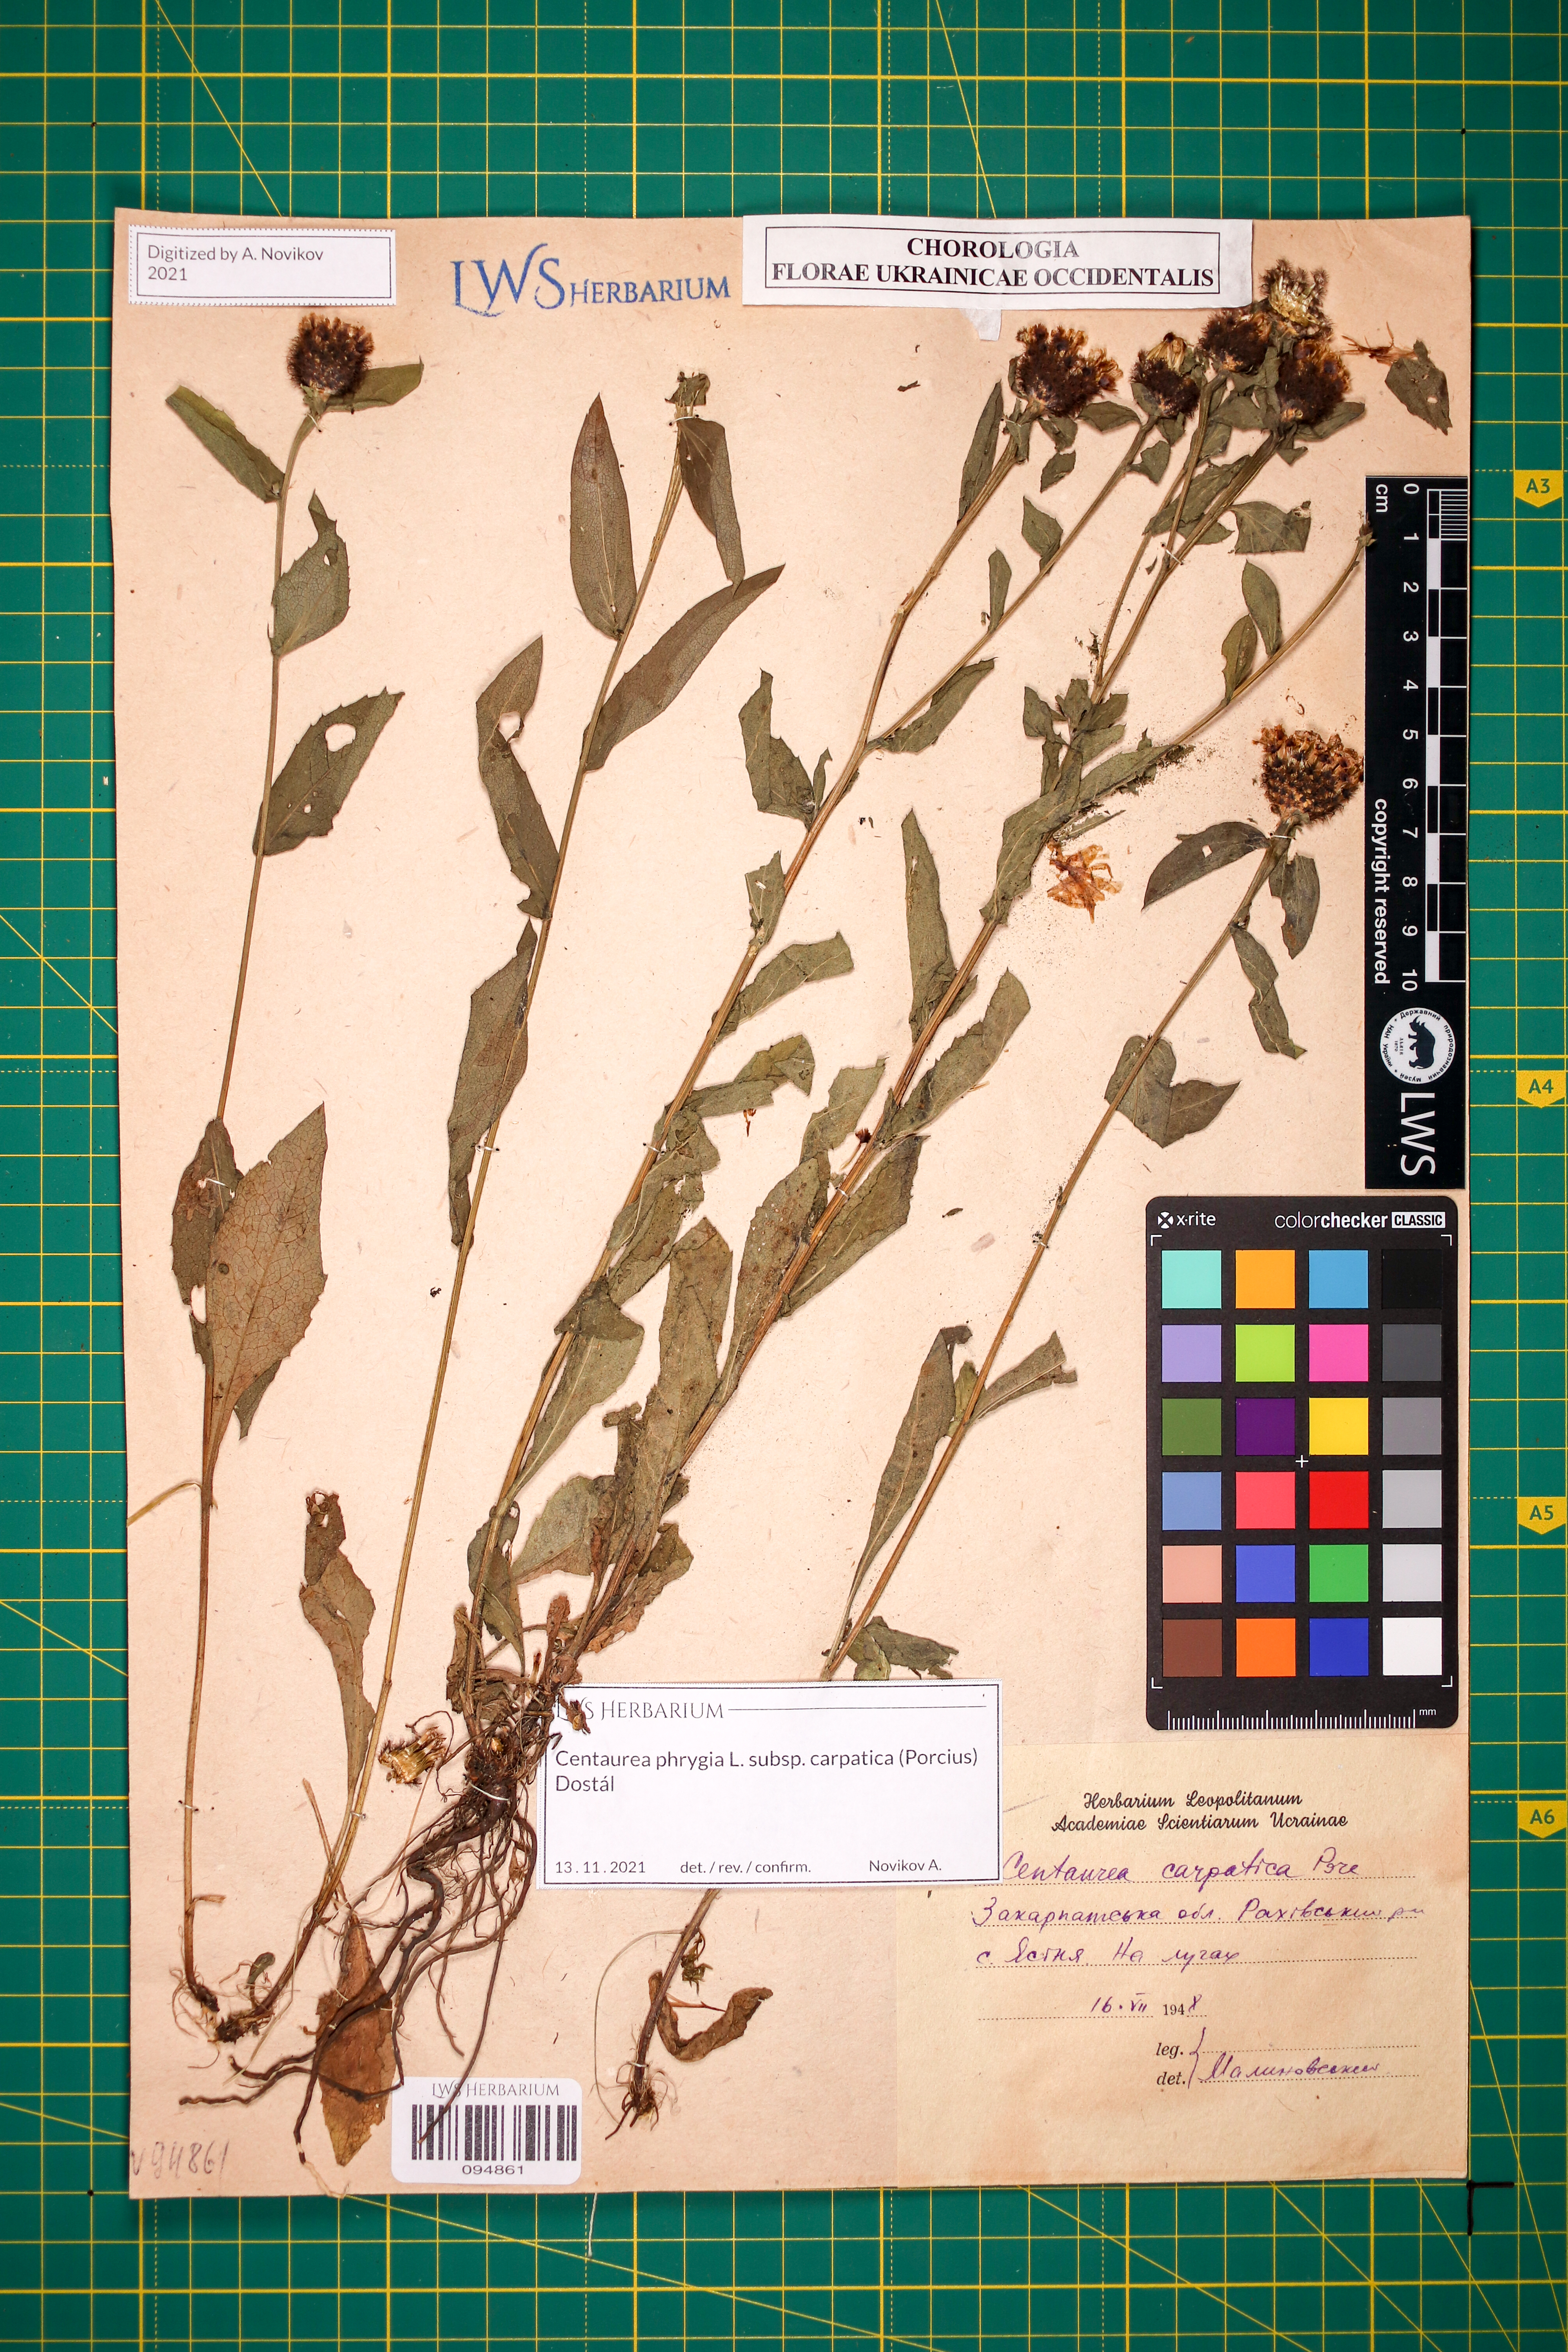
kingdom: Plantae
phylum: Tracheophyta
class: Magnoliopsida
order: Asterales
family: Asteraceae
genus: Centaurea
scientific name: Centaurea phrygia
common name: Wig knapweed
